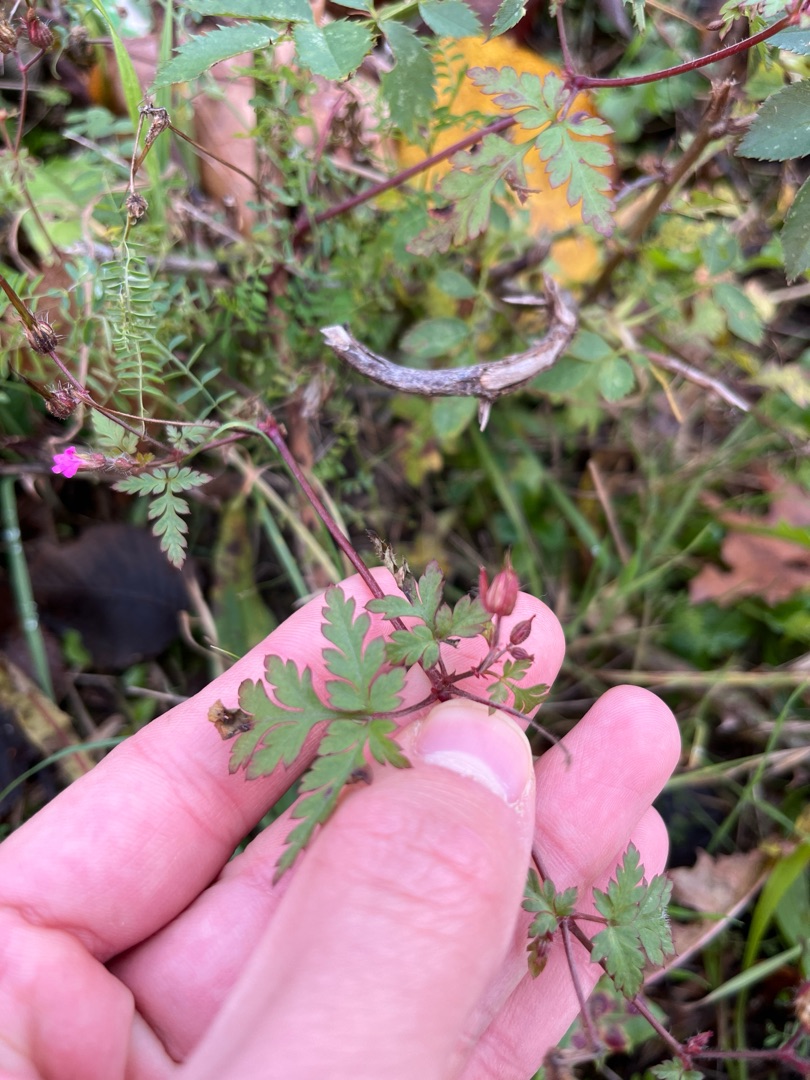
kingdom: Plantae
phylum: Tracheophyta
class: Magnoliopsida
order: Geraniales
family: Geraniaceae
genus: Geranium
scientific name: Geranium robertianum
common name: Stinkende storkenæb
